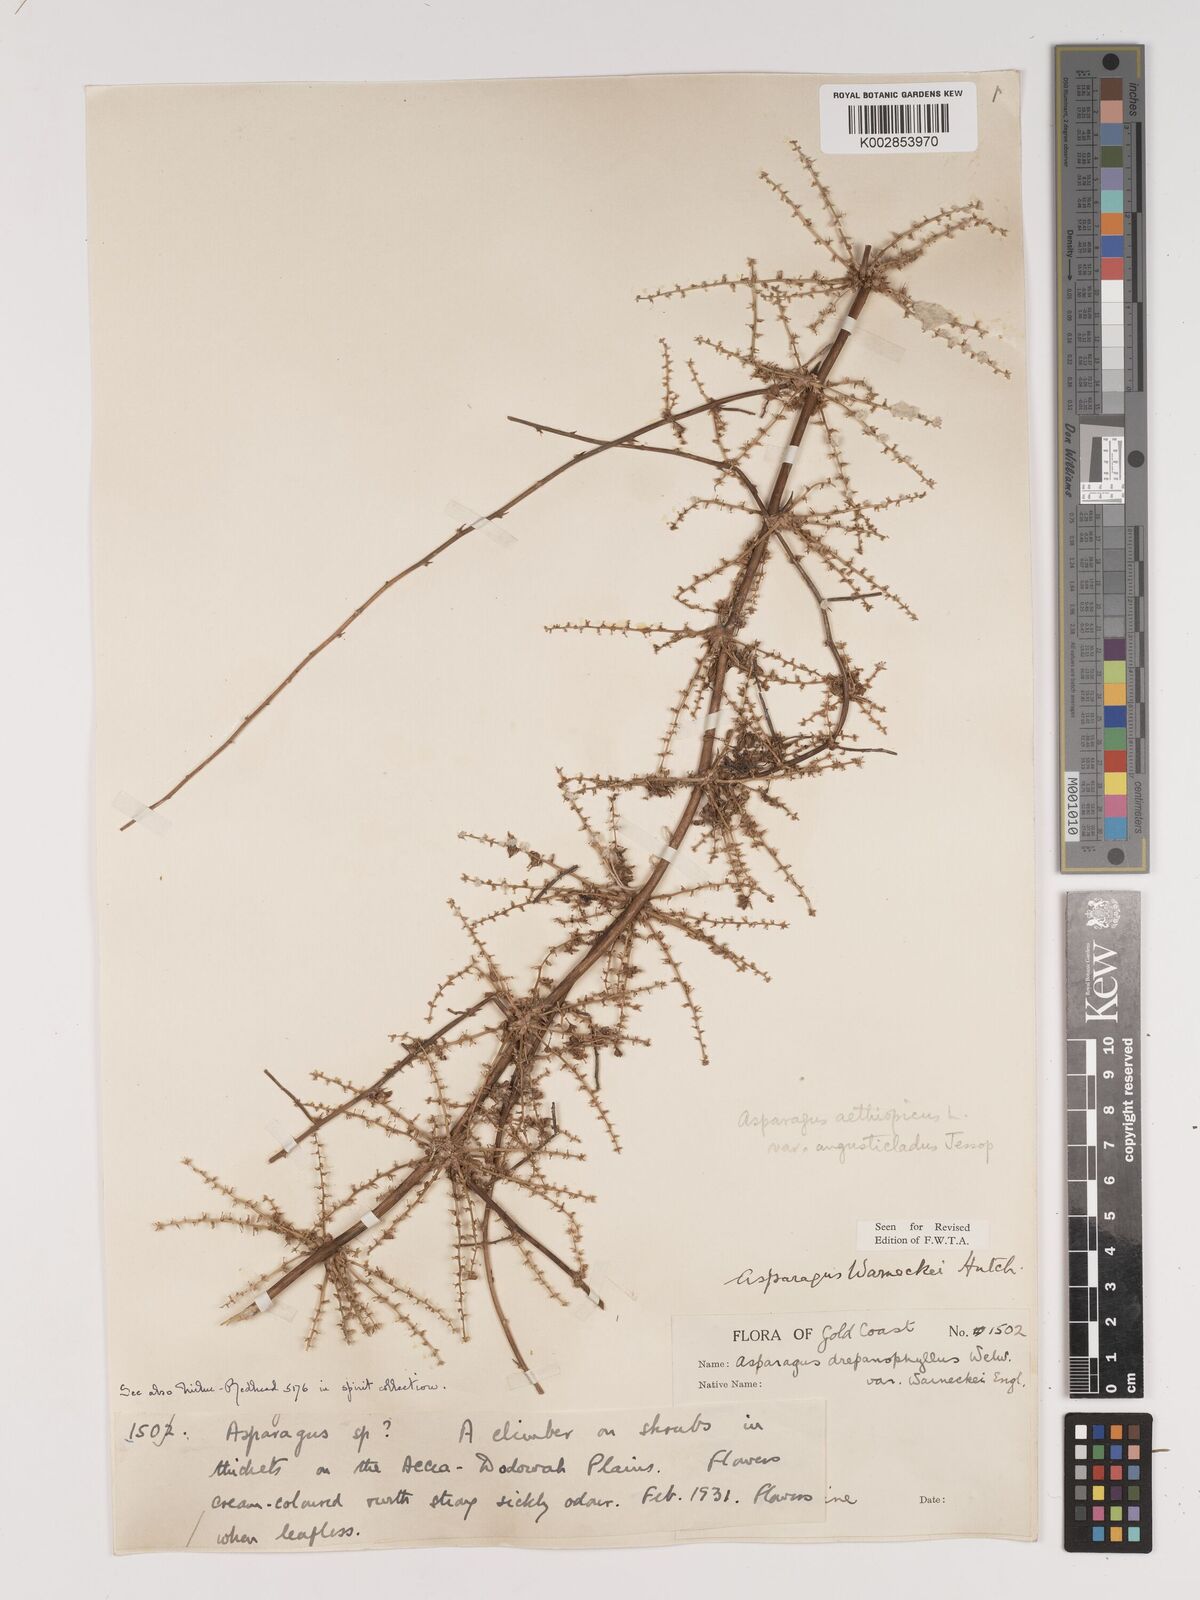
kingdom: Plantae
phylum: Tracheophyta
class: Liliopsida
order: Asparagales
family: Asparagaceae
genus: Asparagus
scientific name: Asparagus aethiopicus
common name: Sprenger's asparagus fern
